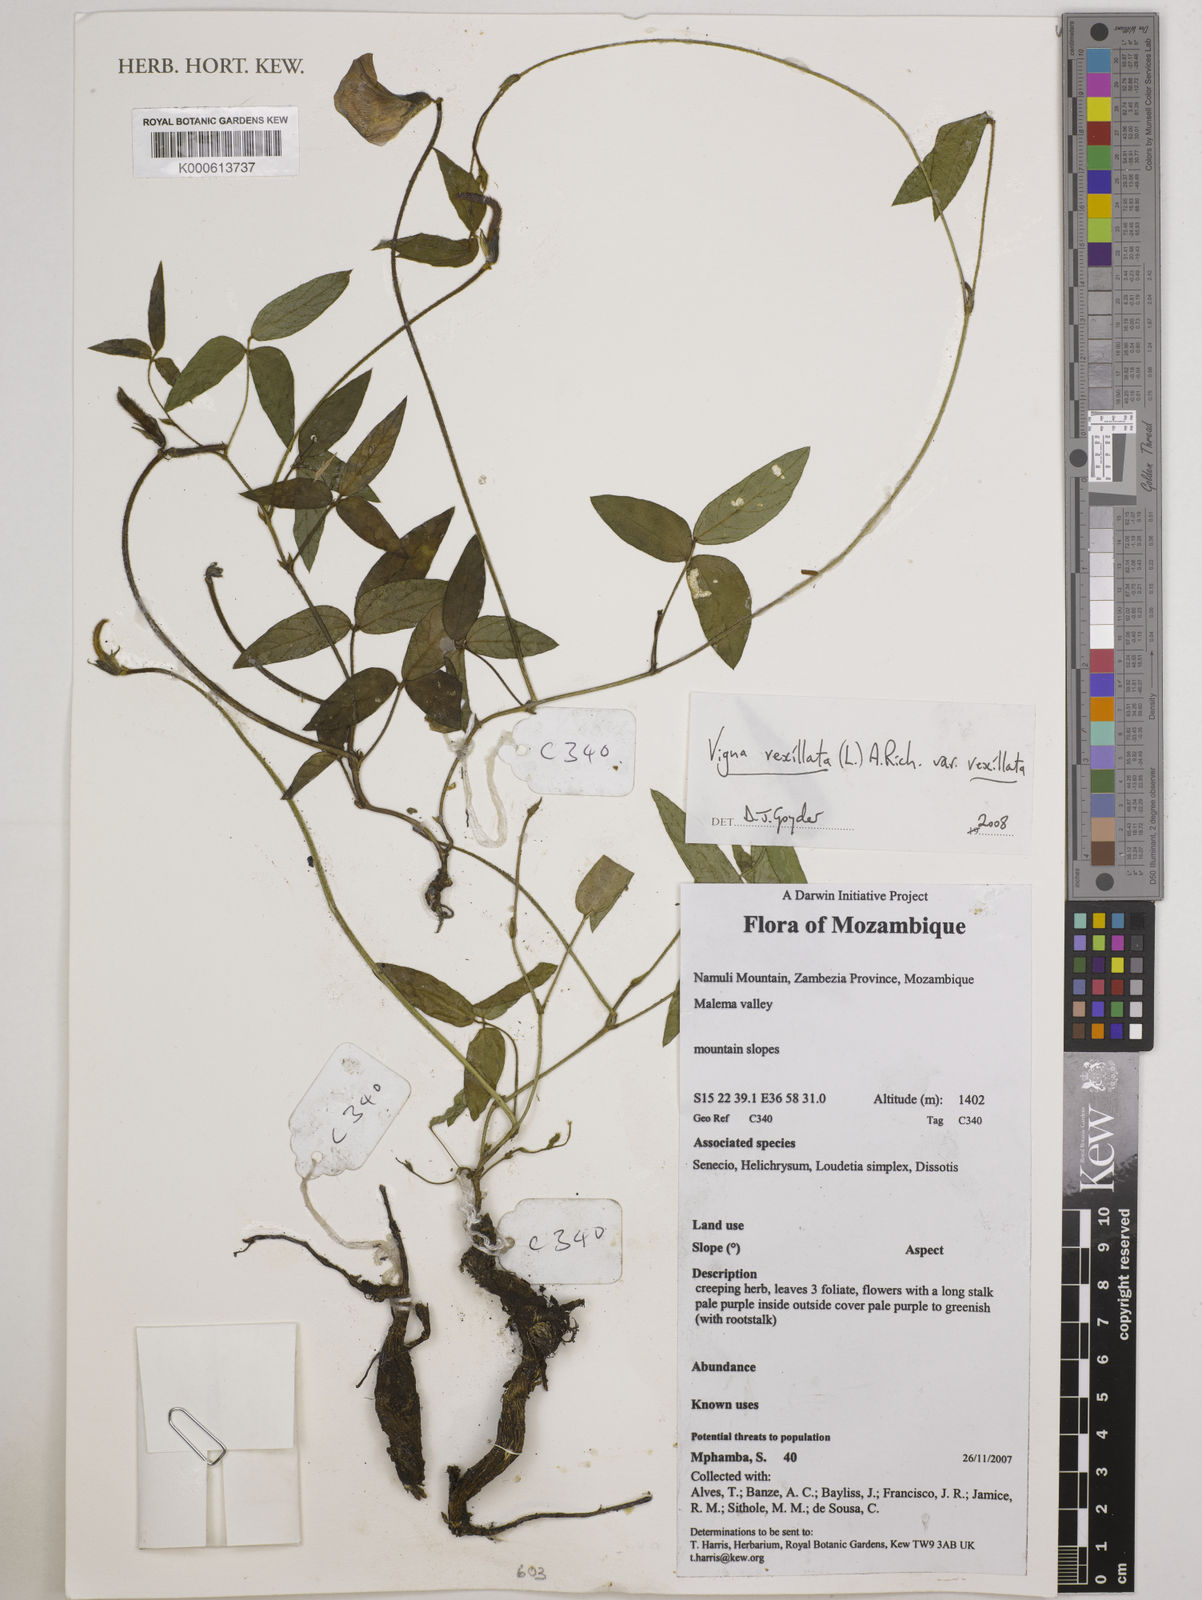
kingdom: Plantae
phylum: Tracheophyta
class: Magnoliopsida
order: Fabales
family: Fabaceae
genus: Vigna
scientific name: Vigna vexillata
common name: Zombi pea
